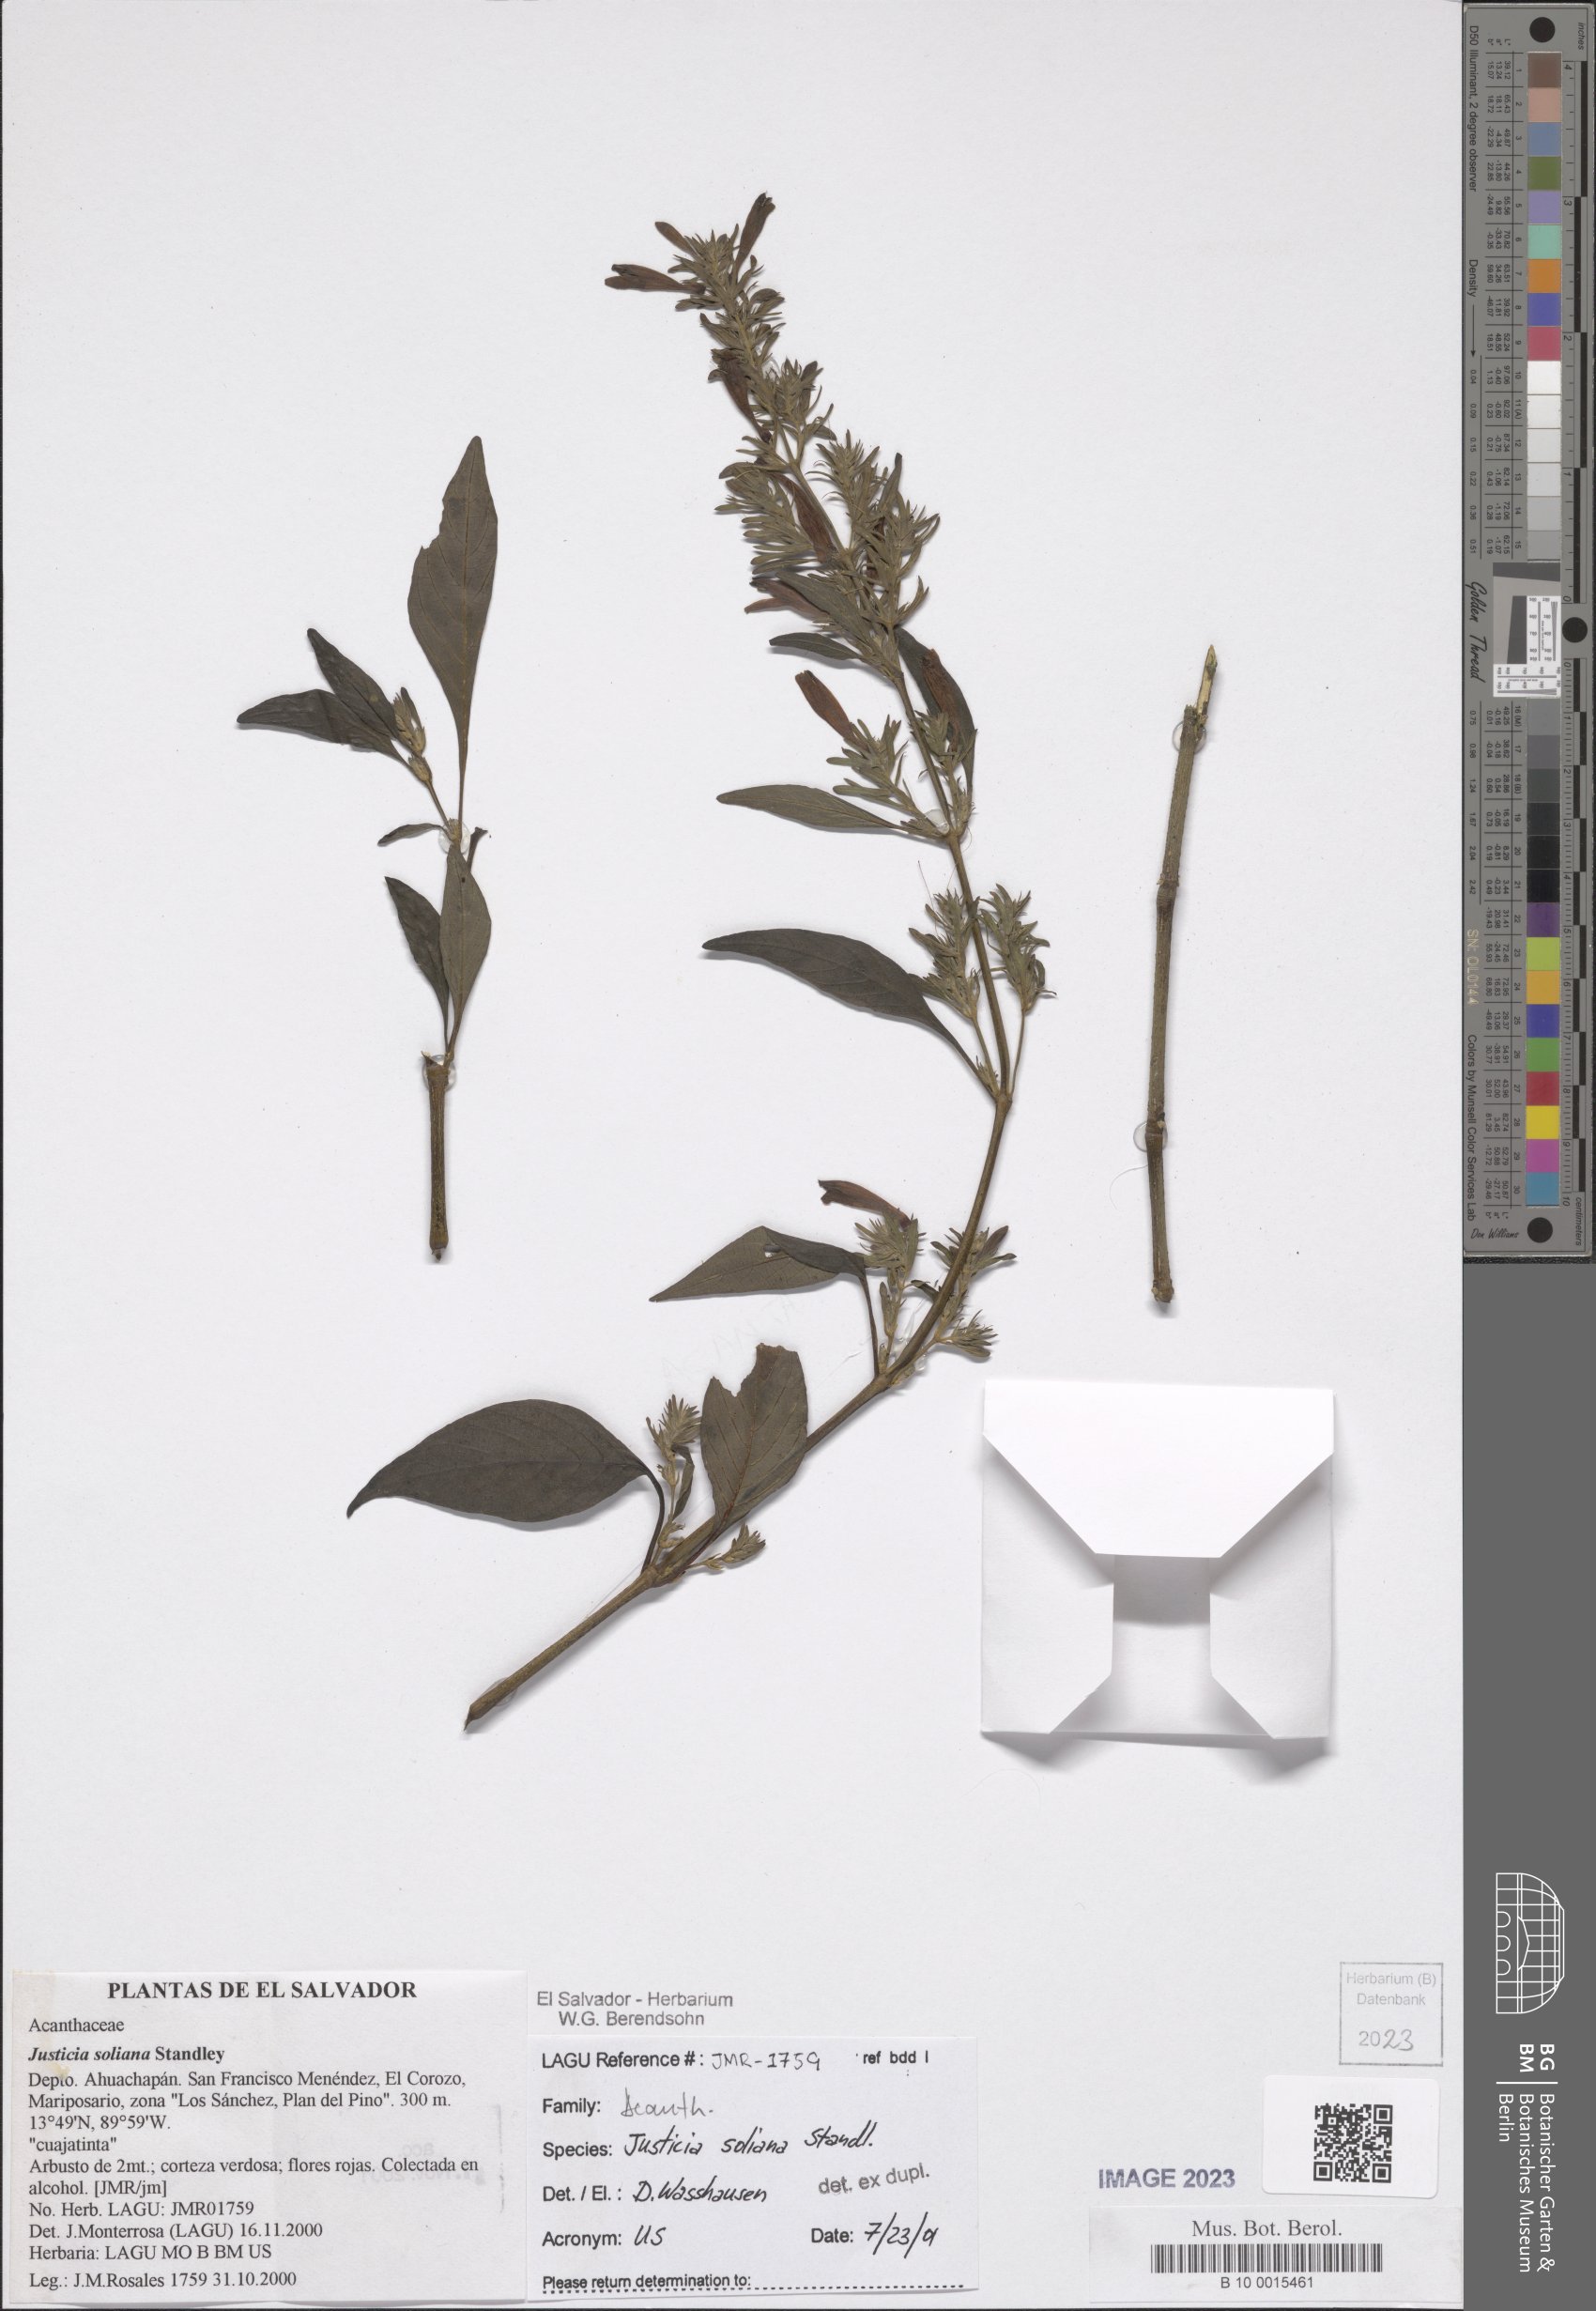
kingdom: Plantae
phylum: Tracheophyta
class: Magnoliopsida
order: Lamiales
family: Acanthaceae
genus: Justicia
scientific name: Justicia soliana
